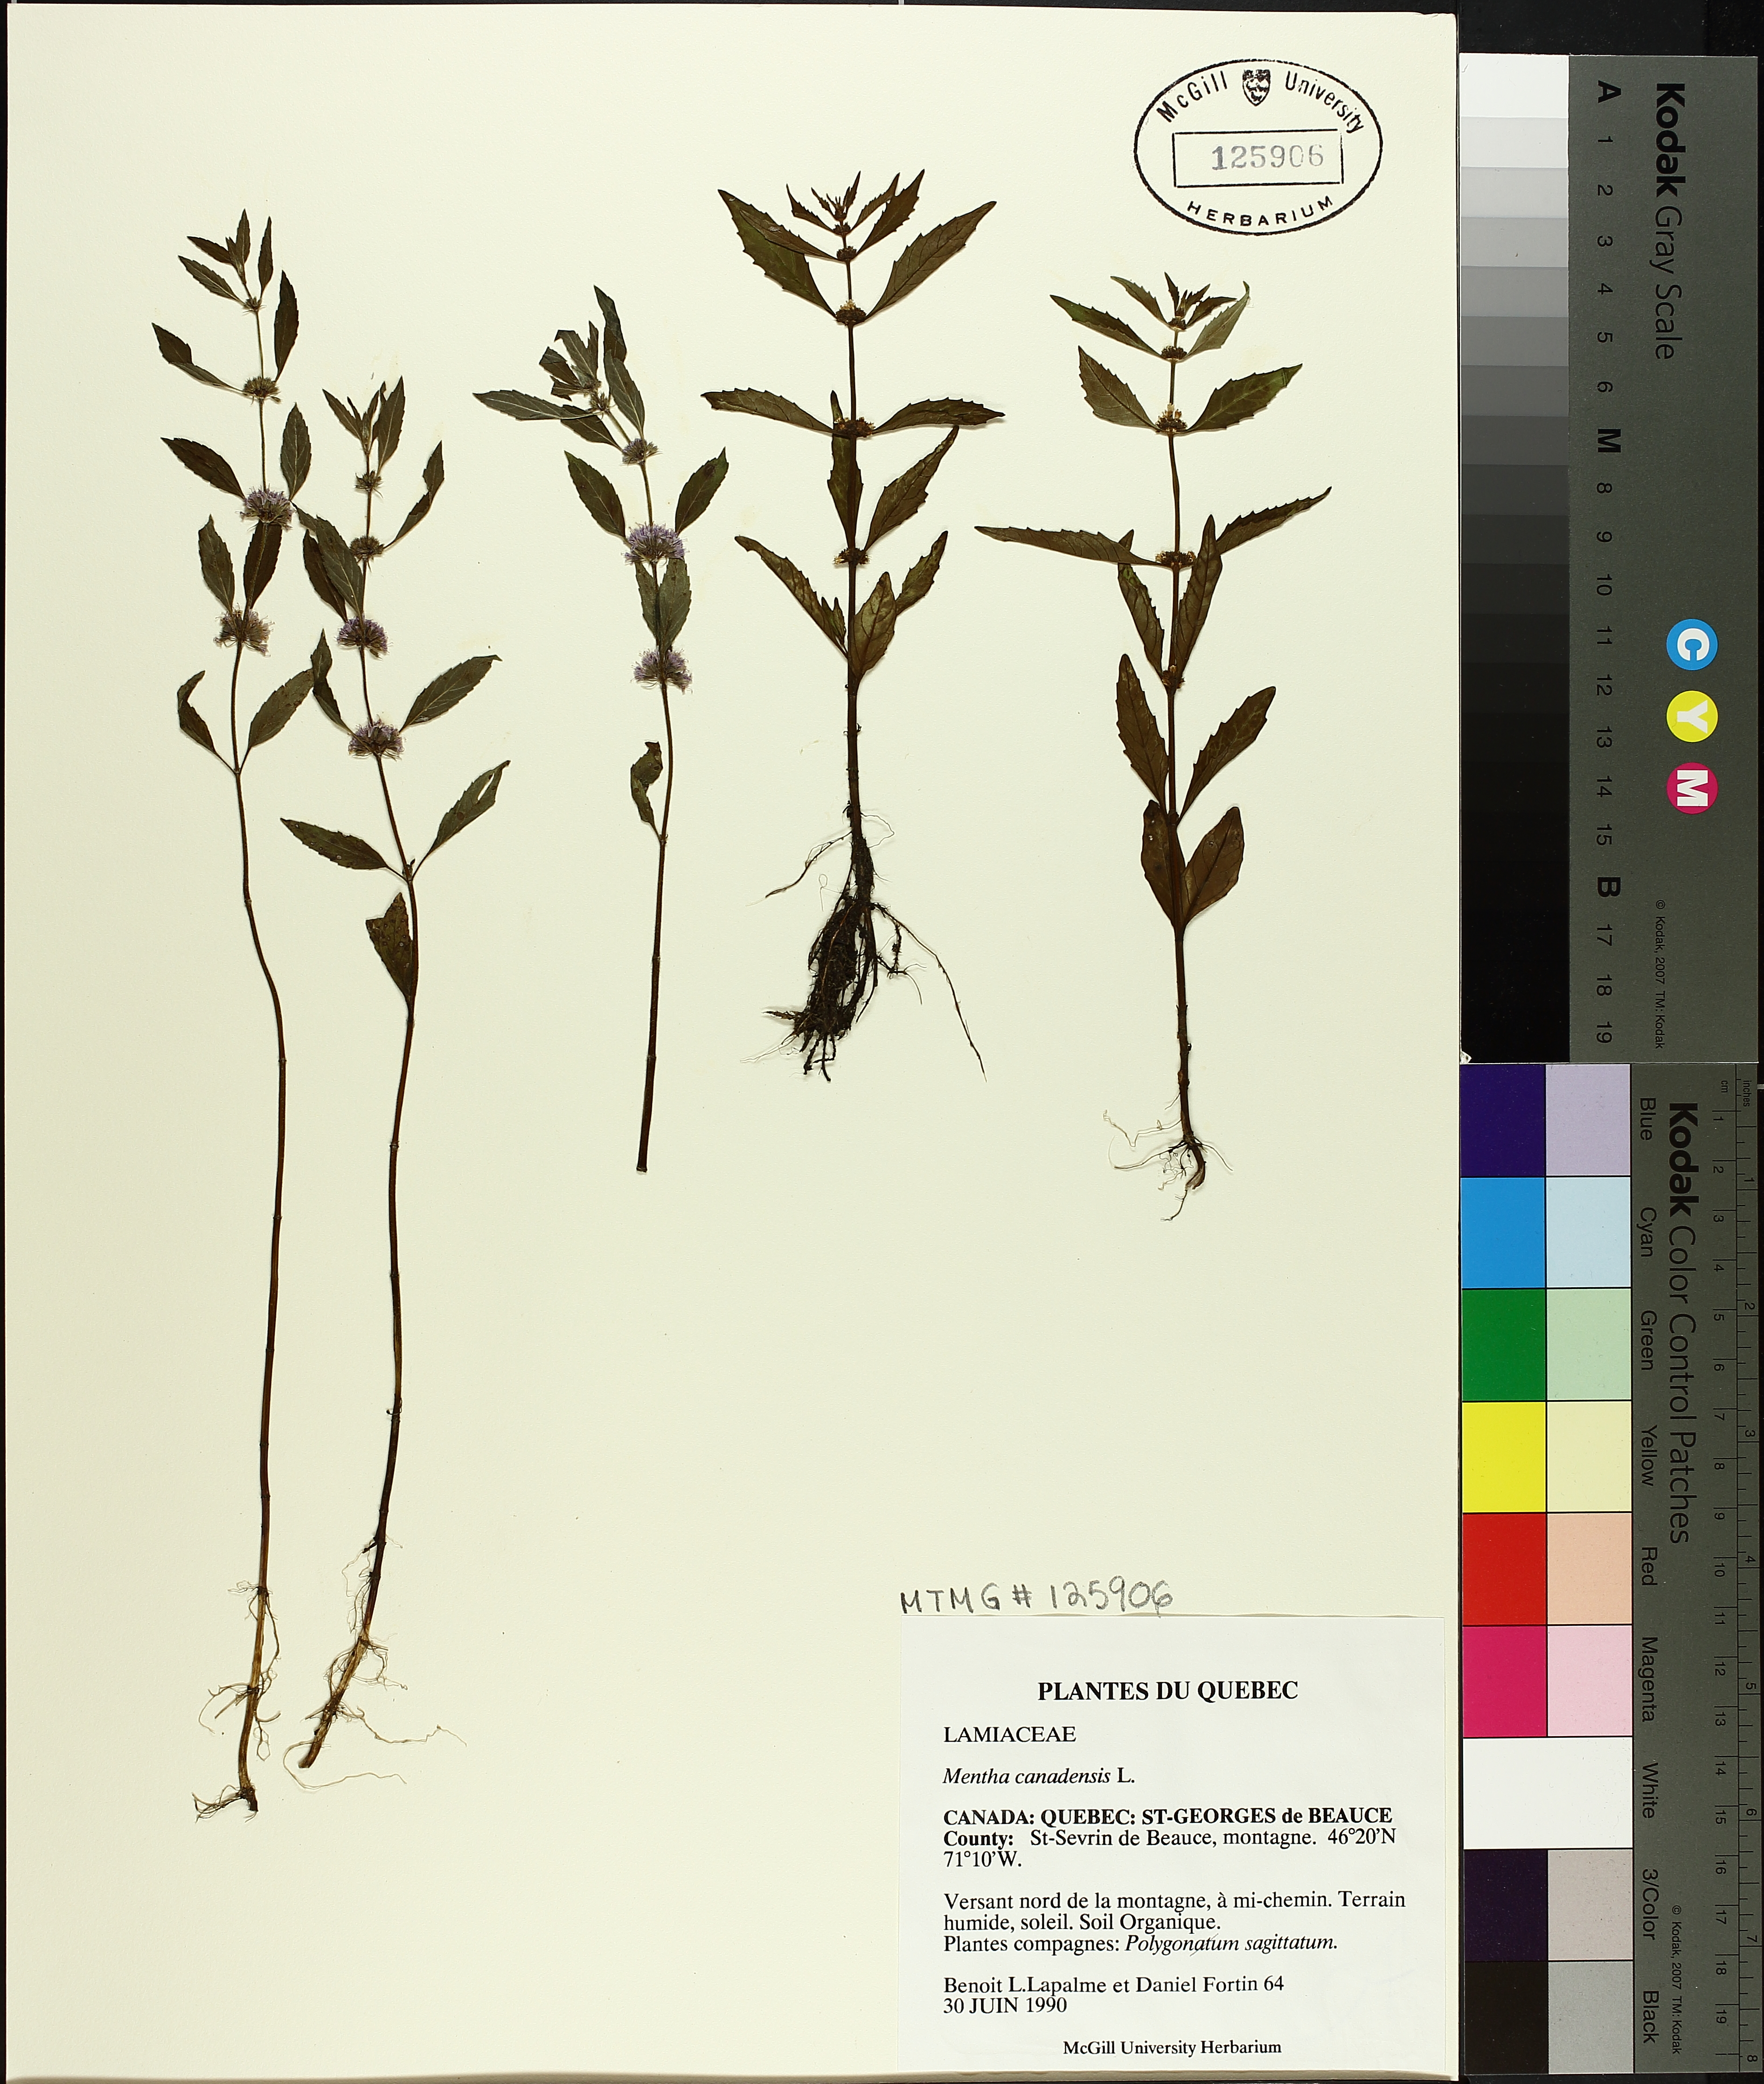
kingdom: Plantae
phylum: Tracheophyta
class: Magnoliopsida
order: Lamiales
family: Lamiaceae
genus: Mentha
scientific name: Mentha canadensis
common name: American corn mint
